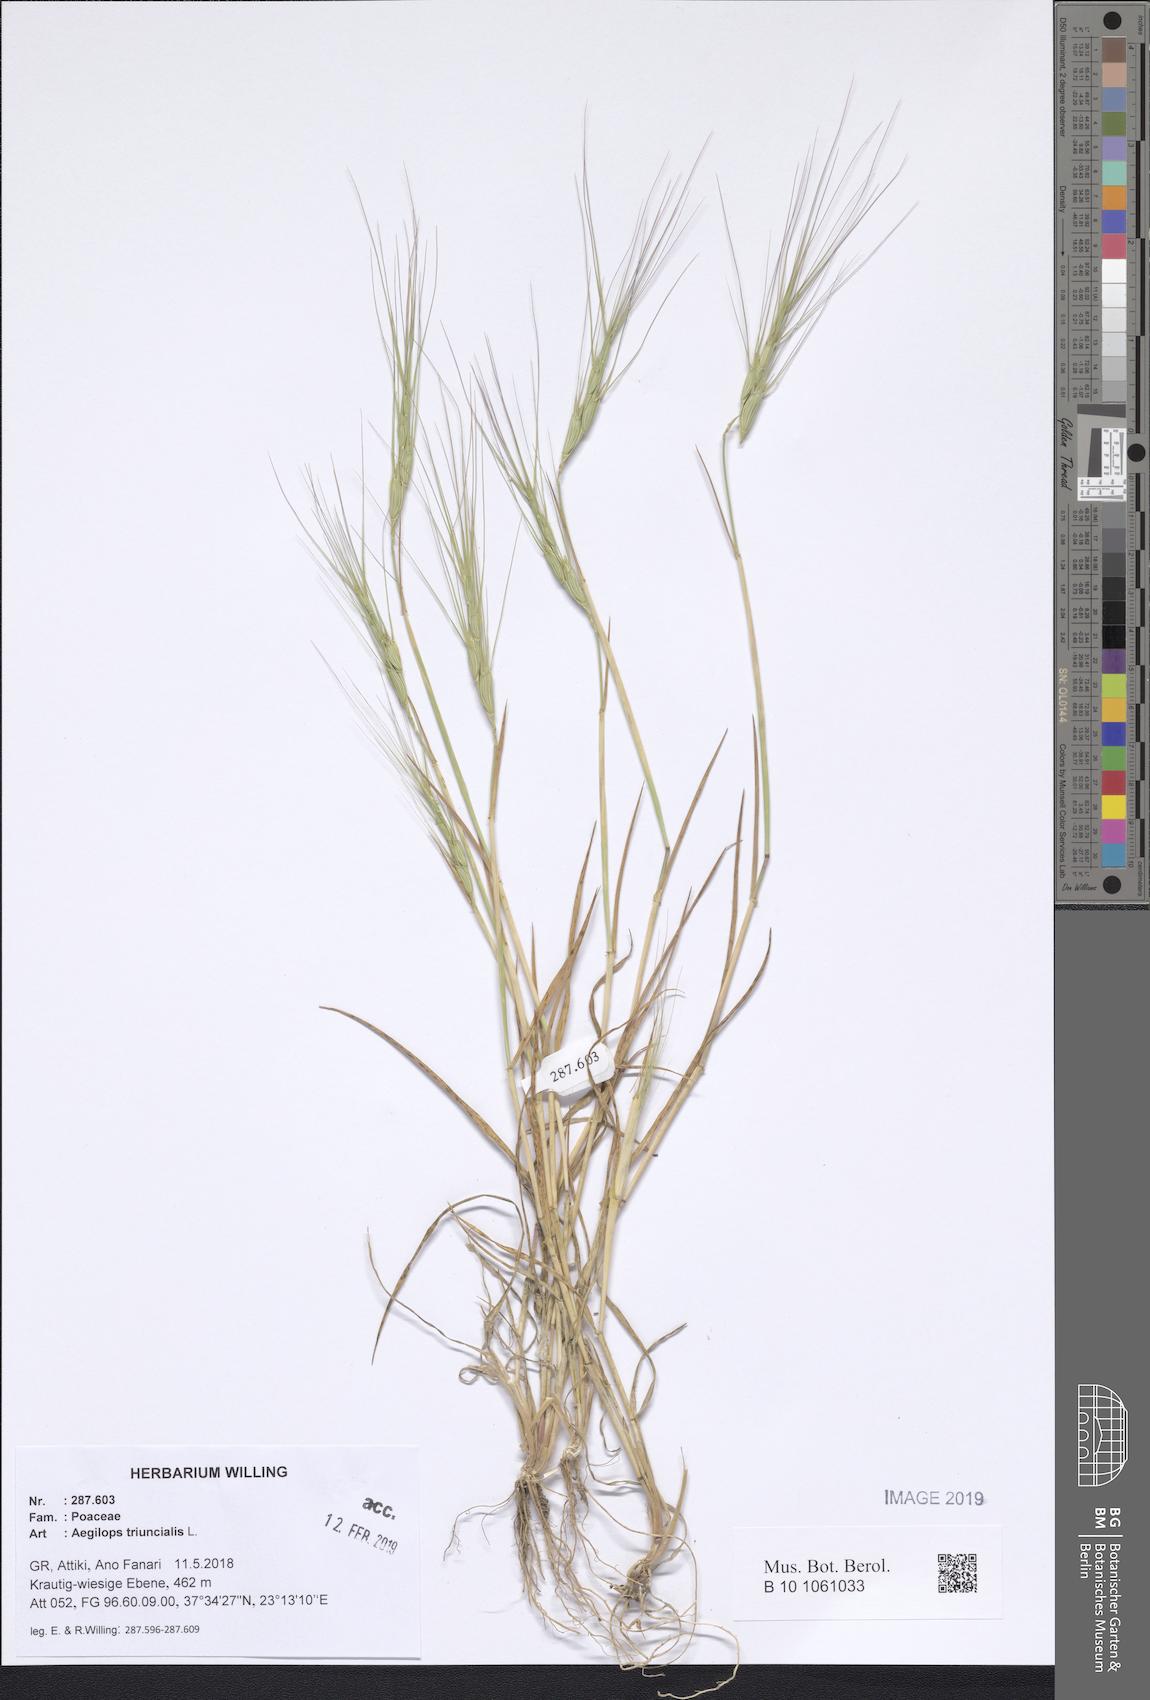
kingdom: Plantae
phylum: Tracheophyta
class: Liliopsida
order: Poales
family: Poaceae
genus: Aegilops
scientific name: Aegilops triuncialis
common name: Barb goat grass
